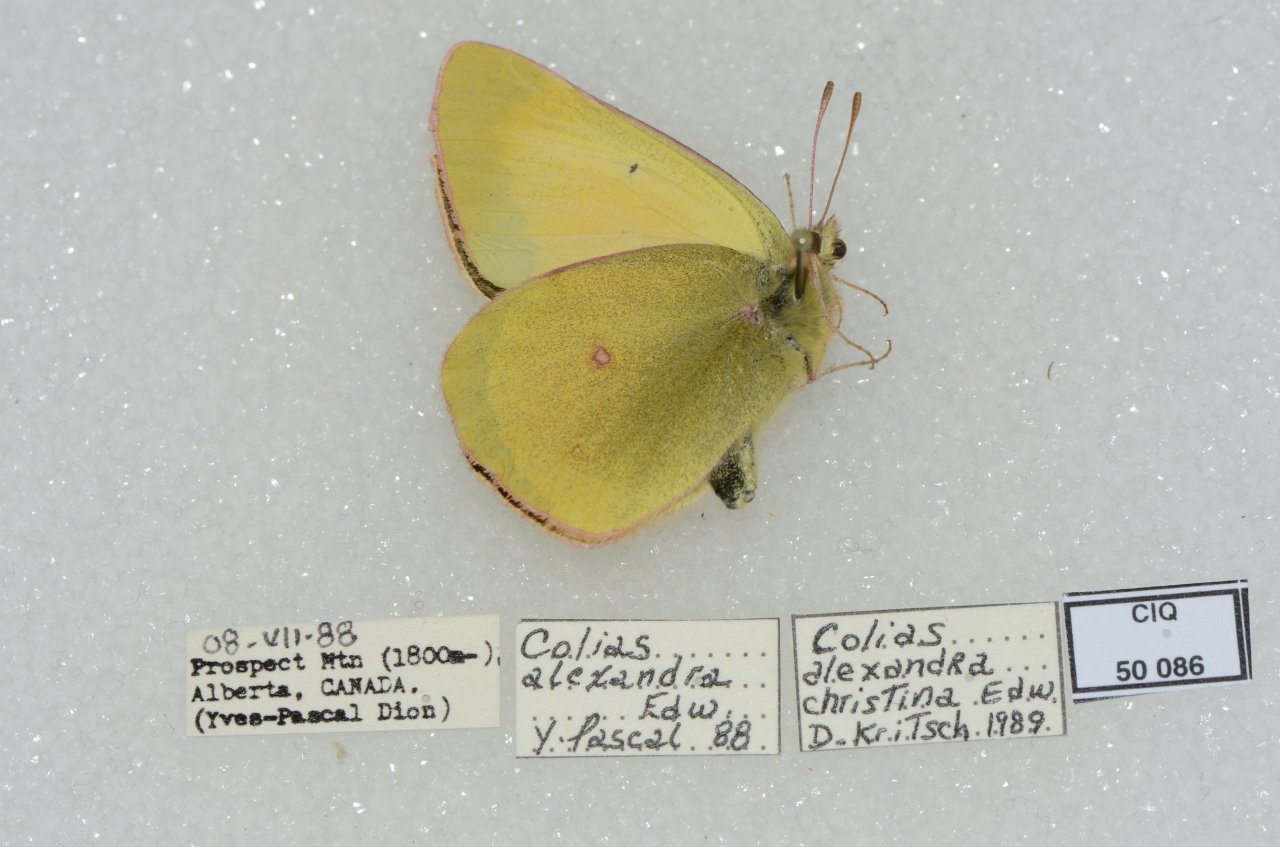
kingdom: Animalia
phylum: Arthropoda
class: Insecta
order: Lepidoptera
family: Pieridae
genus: Colias
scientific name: Colias alexandra
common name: Queen Alexandra's Sulphur
